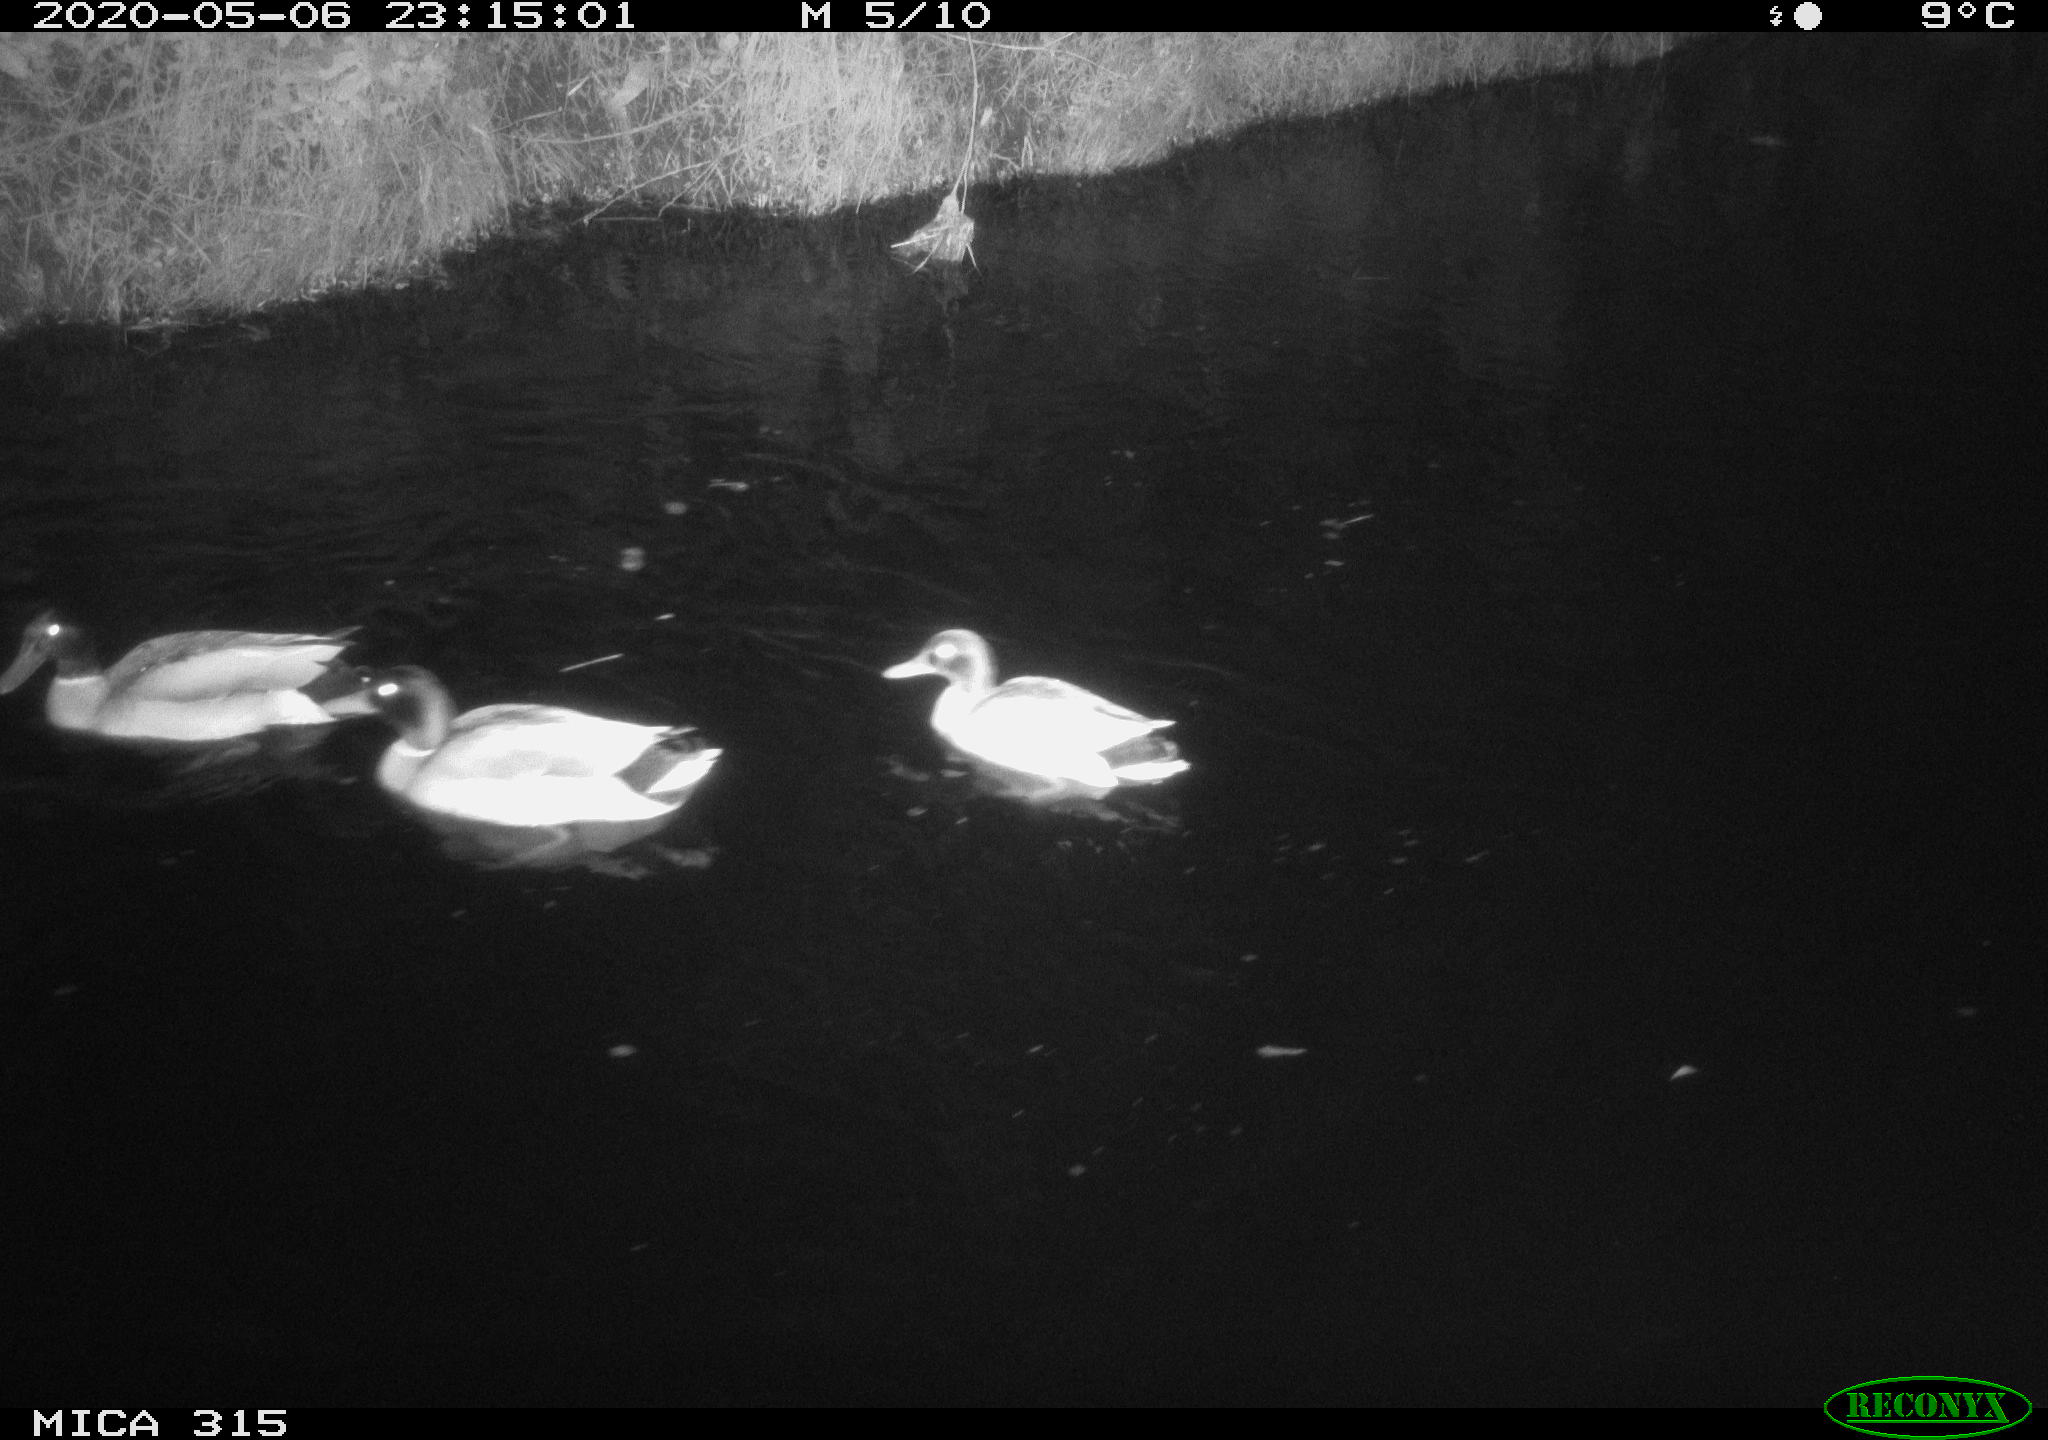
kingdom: Animalia
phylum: Chordata
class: Aves
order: Anseriformes
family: Anatidae
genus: Anas
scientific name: Anas platyrhynchos
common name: Mallard
